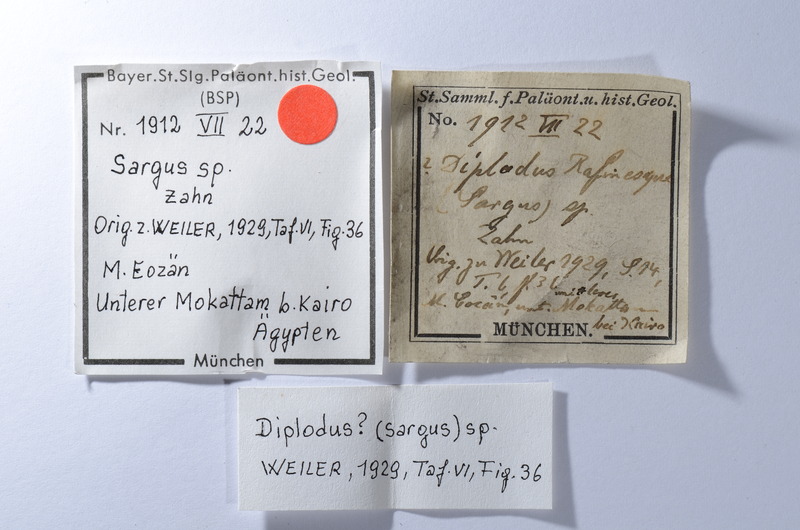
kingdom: Animalia
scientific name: Animalia
